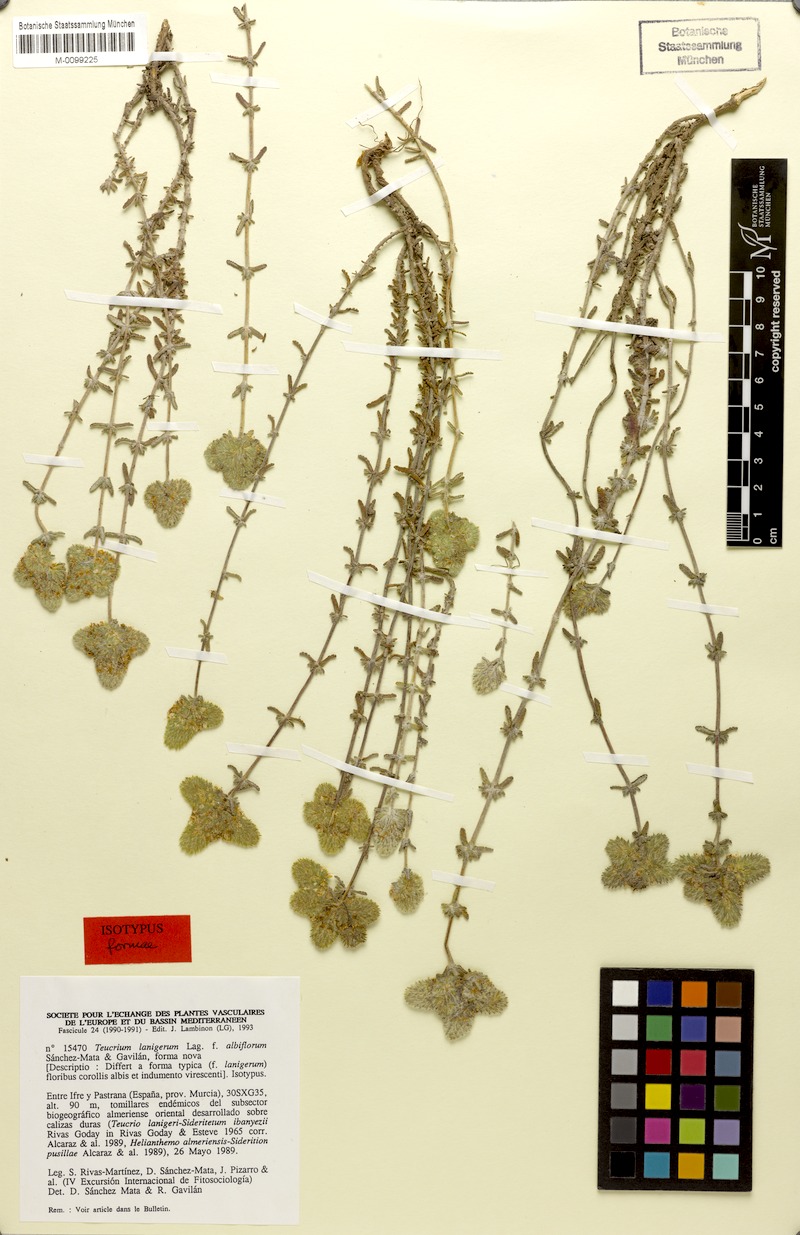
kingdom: Plantae
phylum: Tracheophyta
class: Magnoliopsida
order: Lamiales
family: Lamiaceae
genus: Teucrium
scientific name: Teucrium lanigerum
